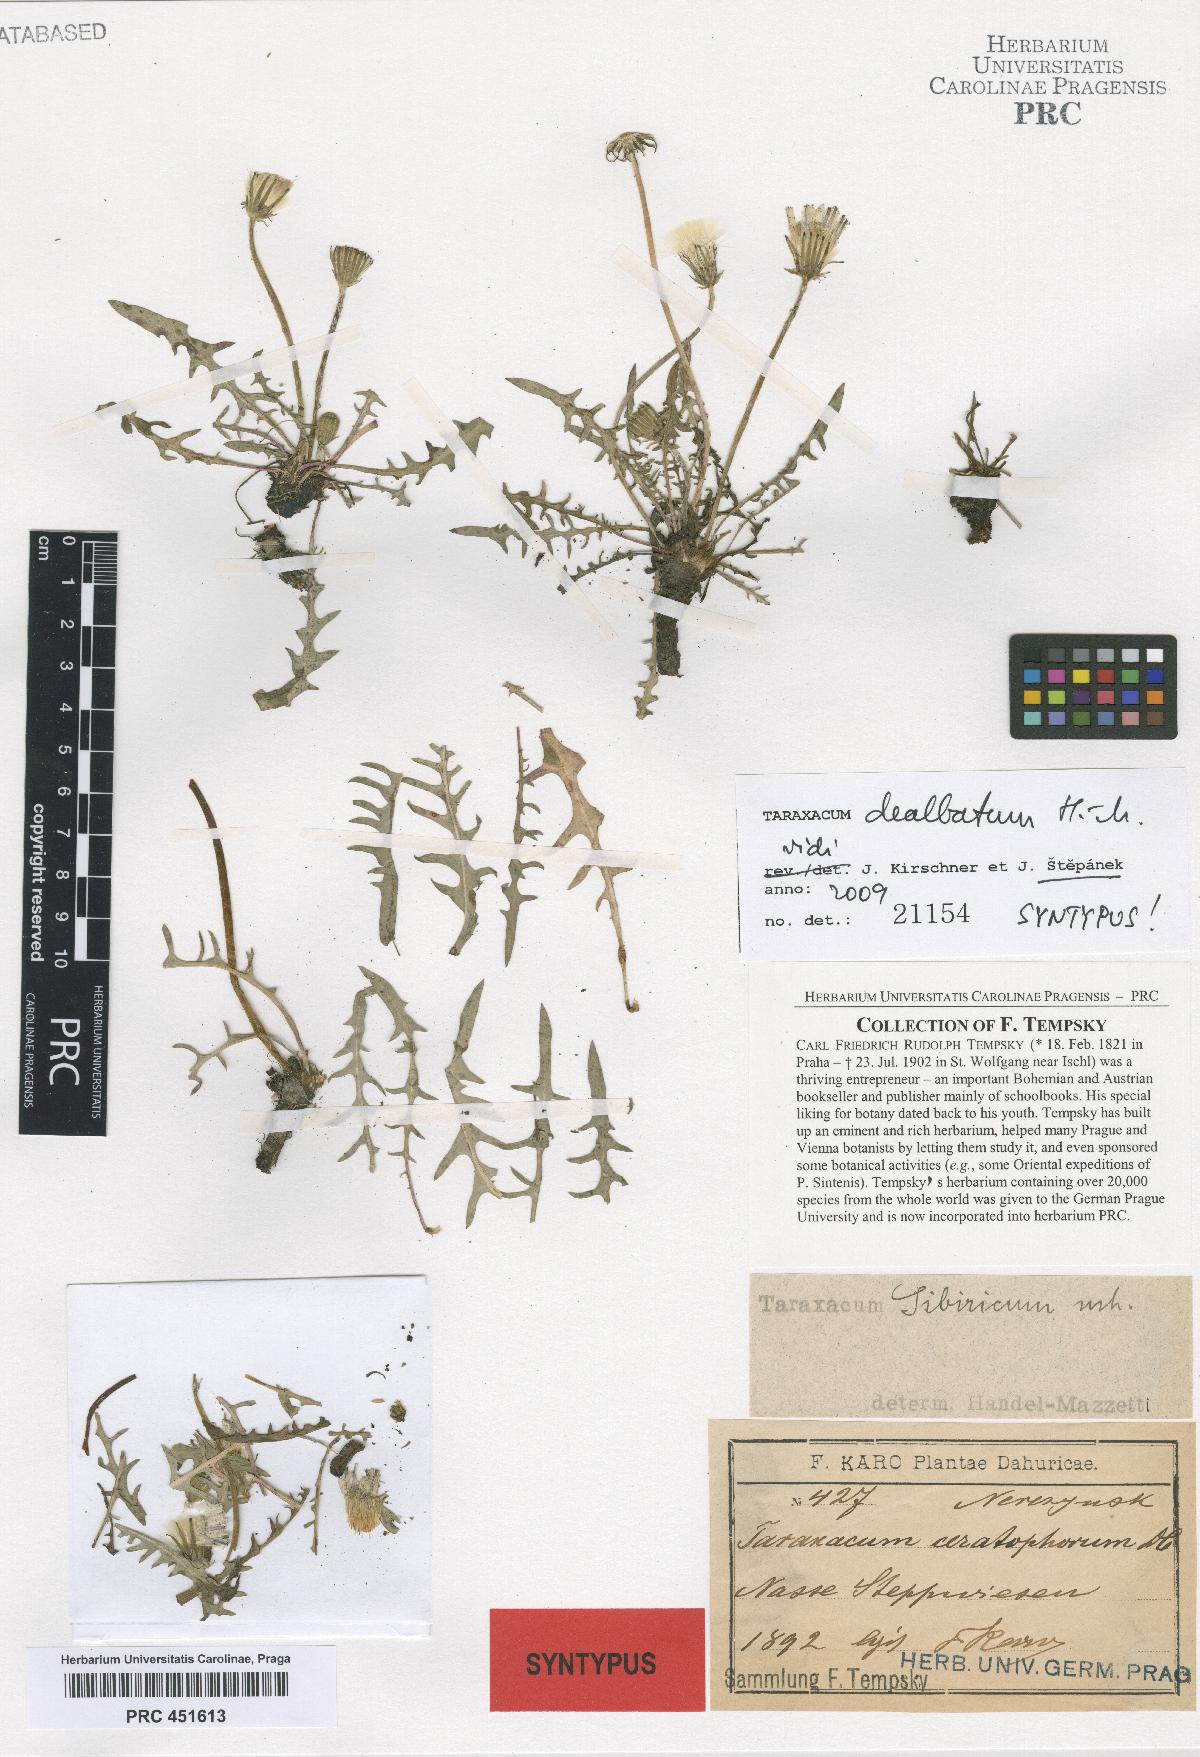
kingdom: Plantae
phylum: Tracheophyta
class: Magnoliopsida
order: Asterales
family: Asteraceae
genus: Taraxacum
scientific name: Taraxacum dealbatum
